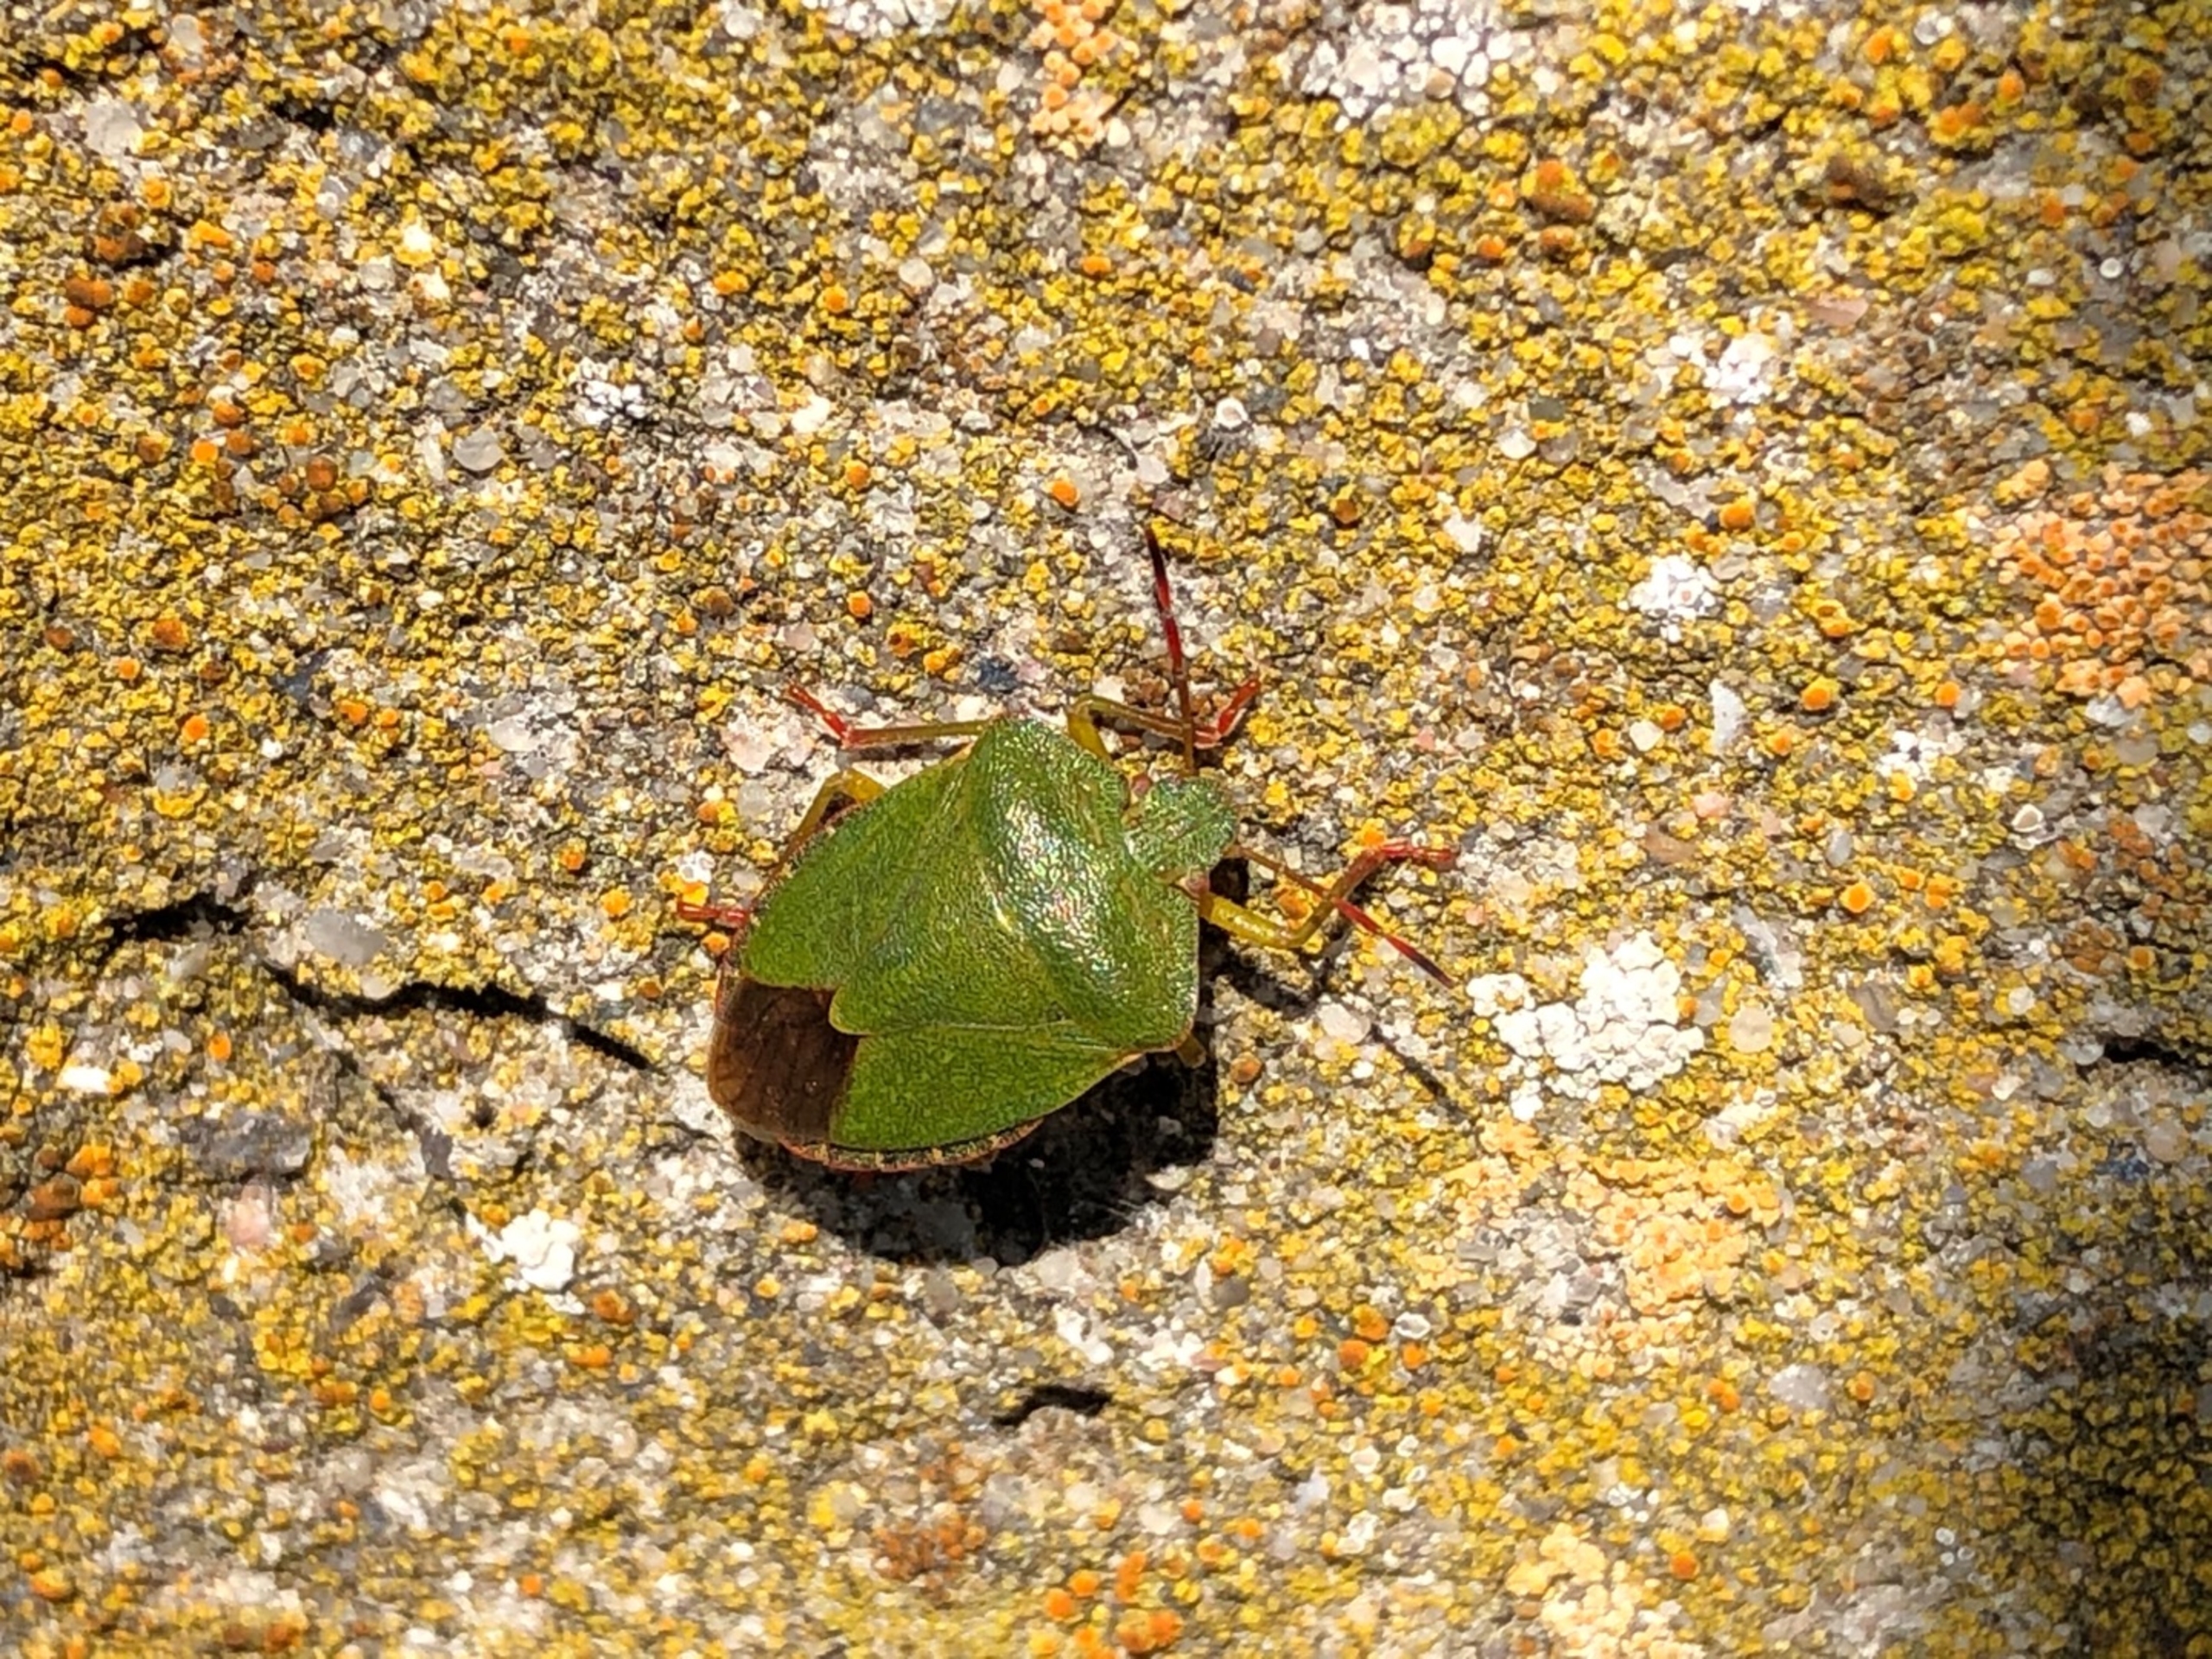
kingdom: Animalia
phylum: Arthropoda
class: Insecta
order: Hemiptera
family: Pentatomidae
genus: Palomena
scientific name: Palomena prasina
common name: Grøn bredtæge
